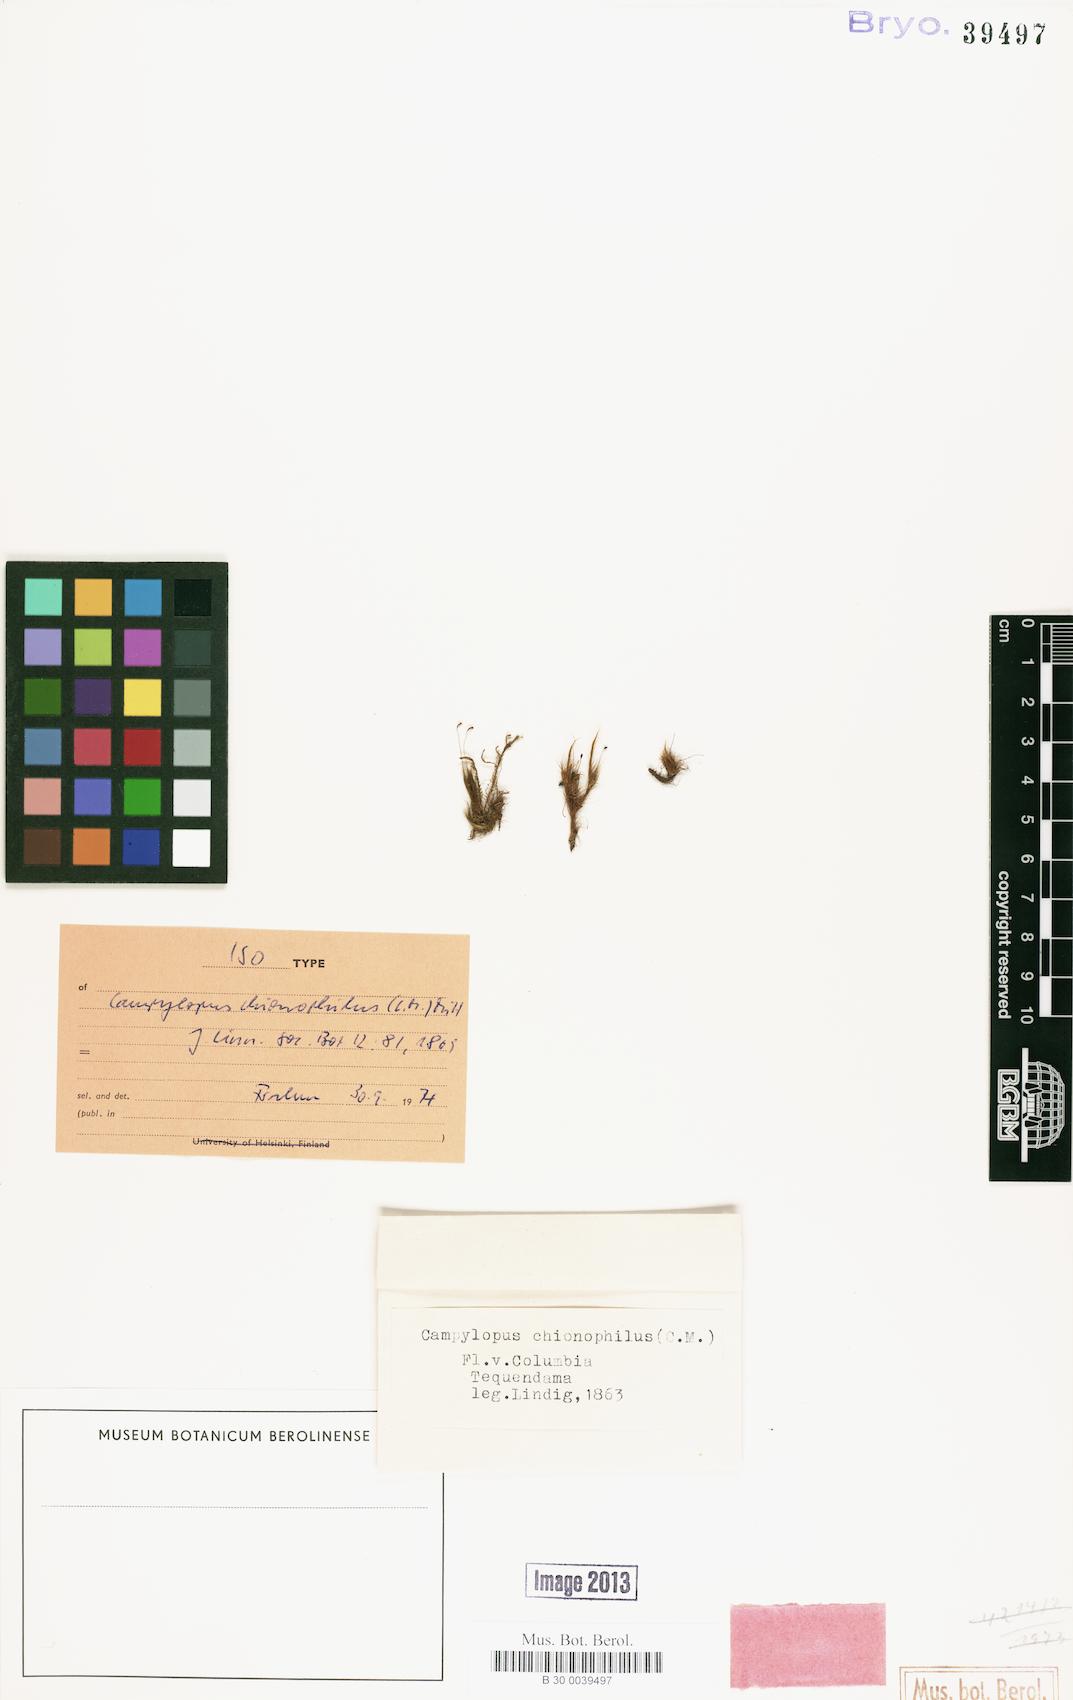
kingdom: Plantae
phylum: Bryophyta
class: Bryopsida
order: Dicranales
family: Leucobryaceae
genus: Dicranodontium
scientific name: Dicranodontium denudatum
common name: Beaked bow moss
